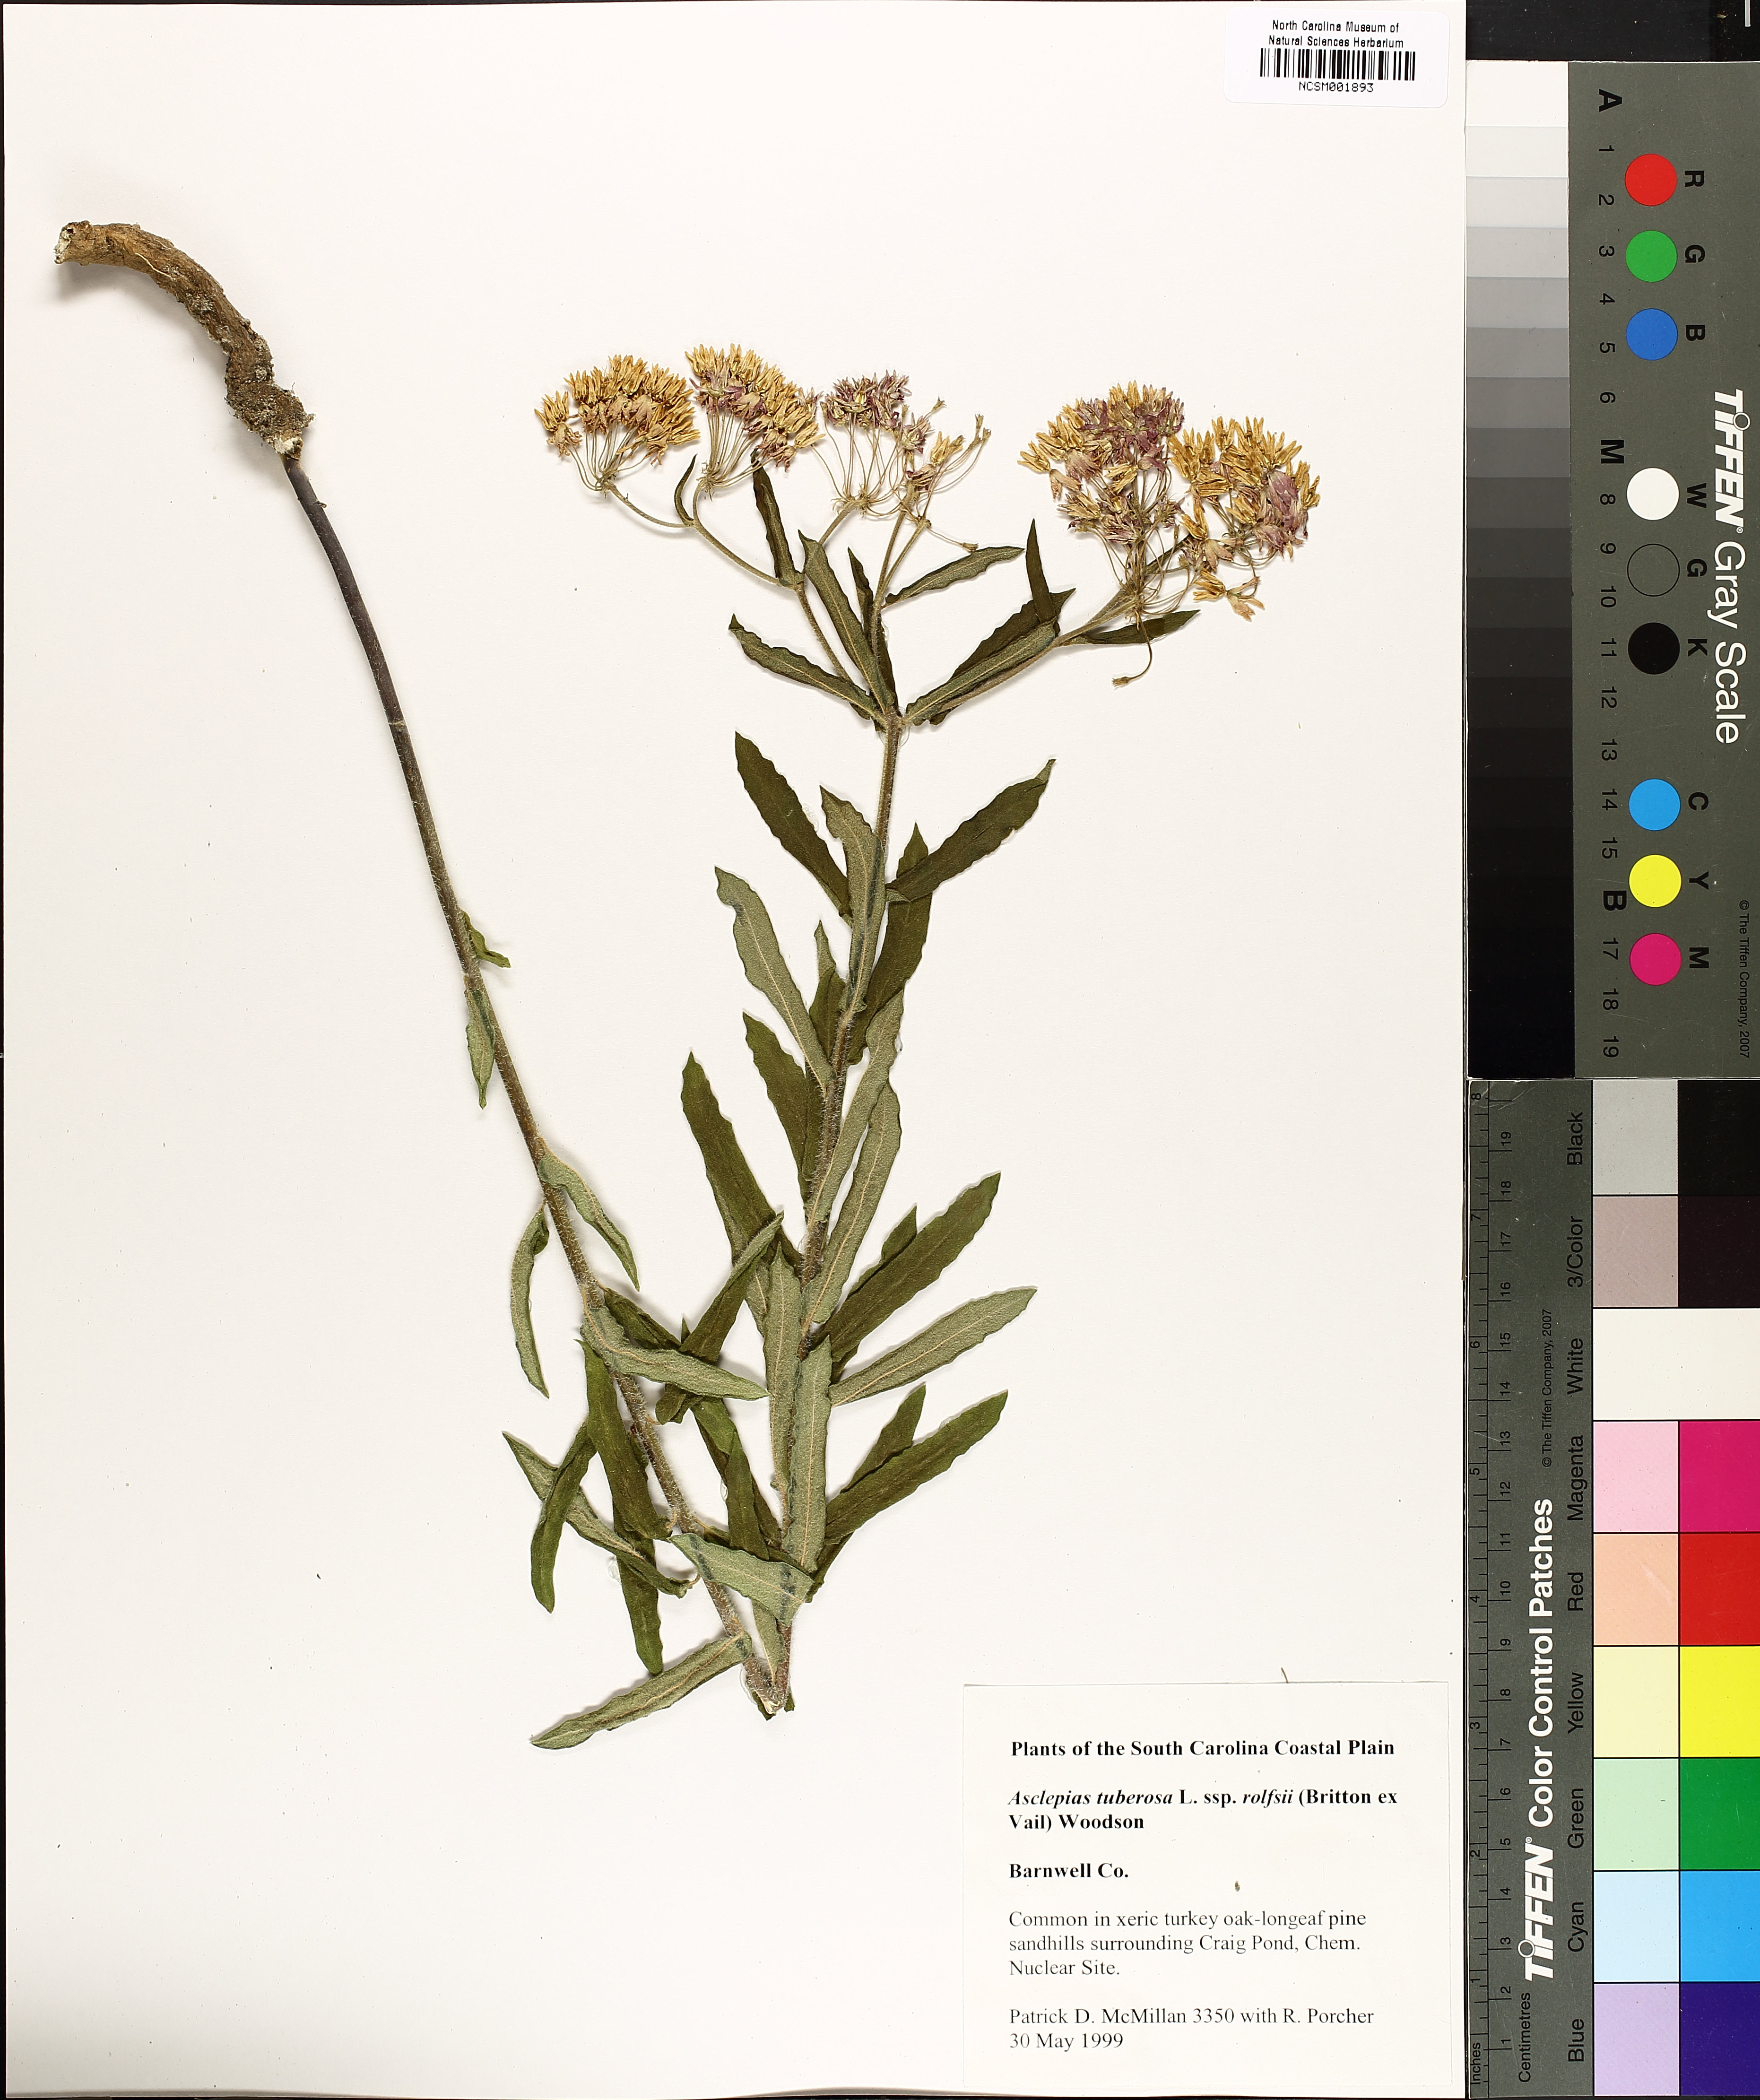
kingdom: Plantae
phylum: Tracheophyta
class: Magnoliopsida
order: Gentianales
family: Apocynaceae
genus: Asclepias
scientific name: Asclepias tuberosa
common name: Butterfly milkweed
